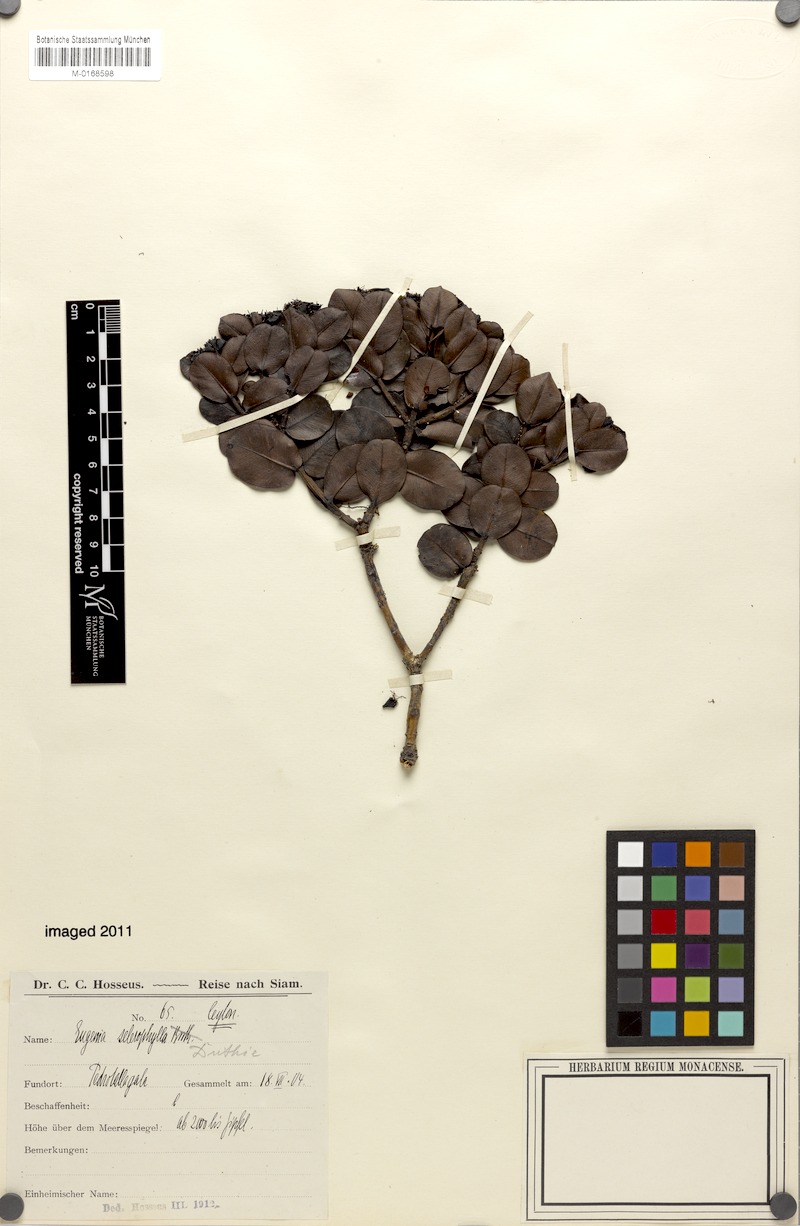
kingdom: Plantae
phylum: Tracheophyta
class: Magnoliopsida
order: Myrtales
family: Myrtaceae
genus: Syzygium
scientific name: Syzygium sclerophyllum
